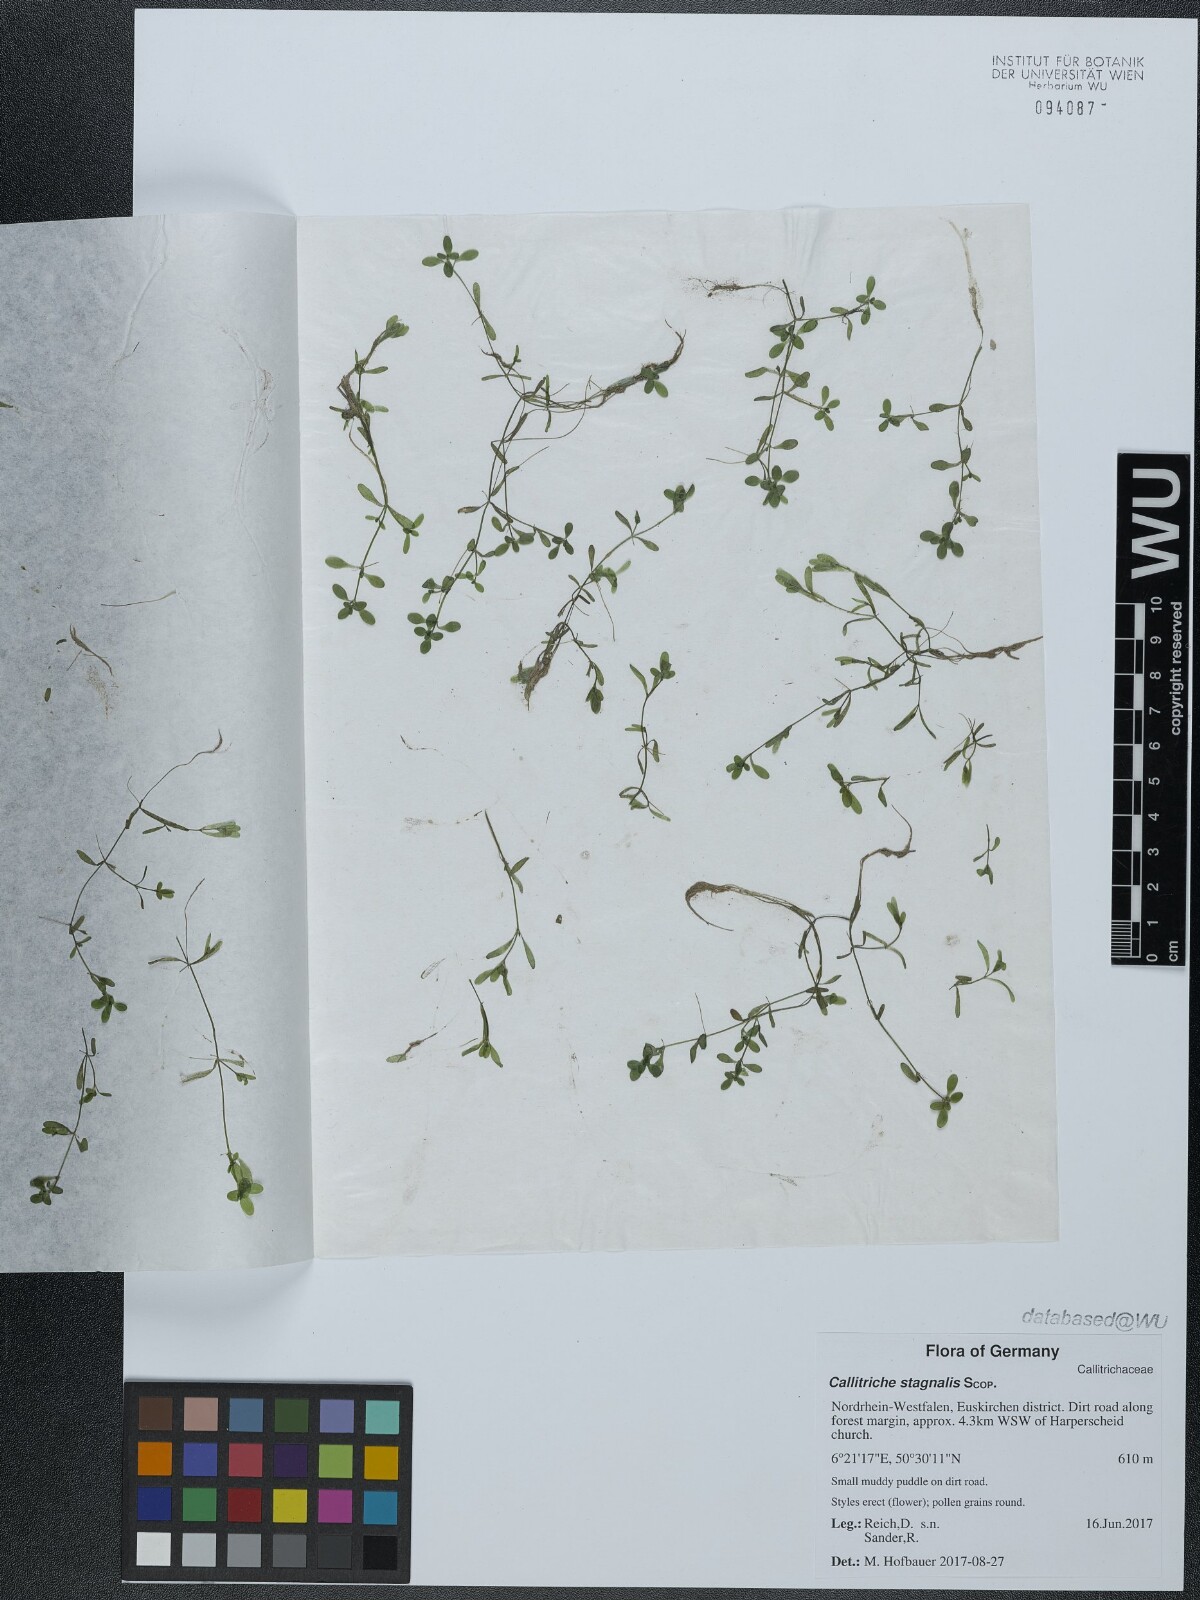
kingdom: Plantae
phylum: Tracheophyta
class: Magnoliopsida
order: Lamiales
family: Plantaginaceae
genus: Callitriche
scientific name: Callitriche stagnalis
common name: Common water-starwort
